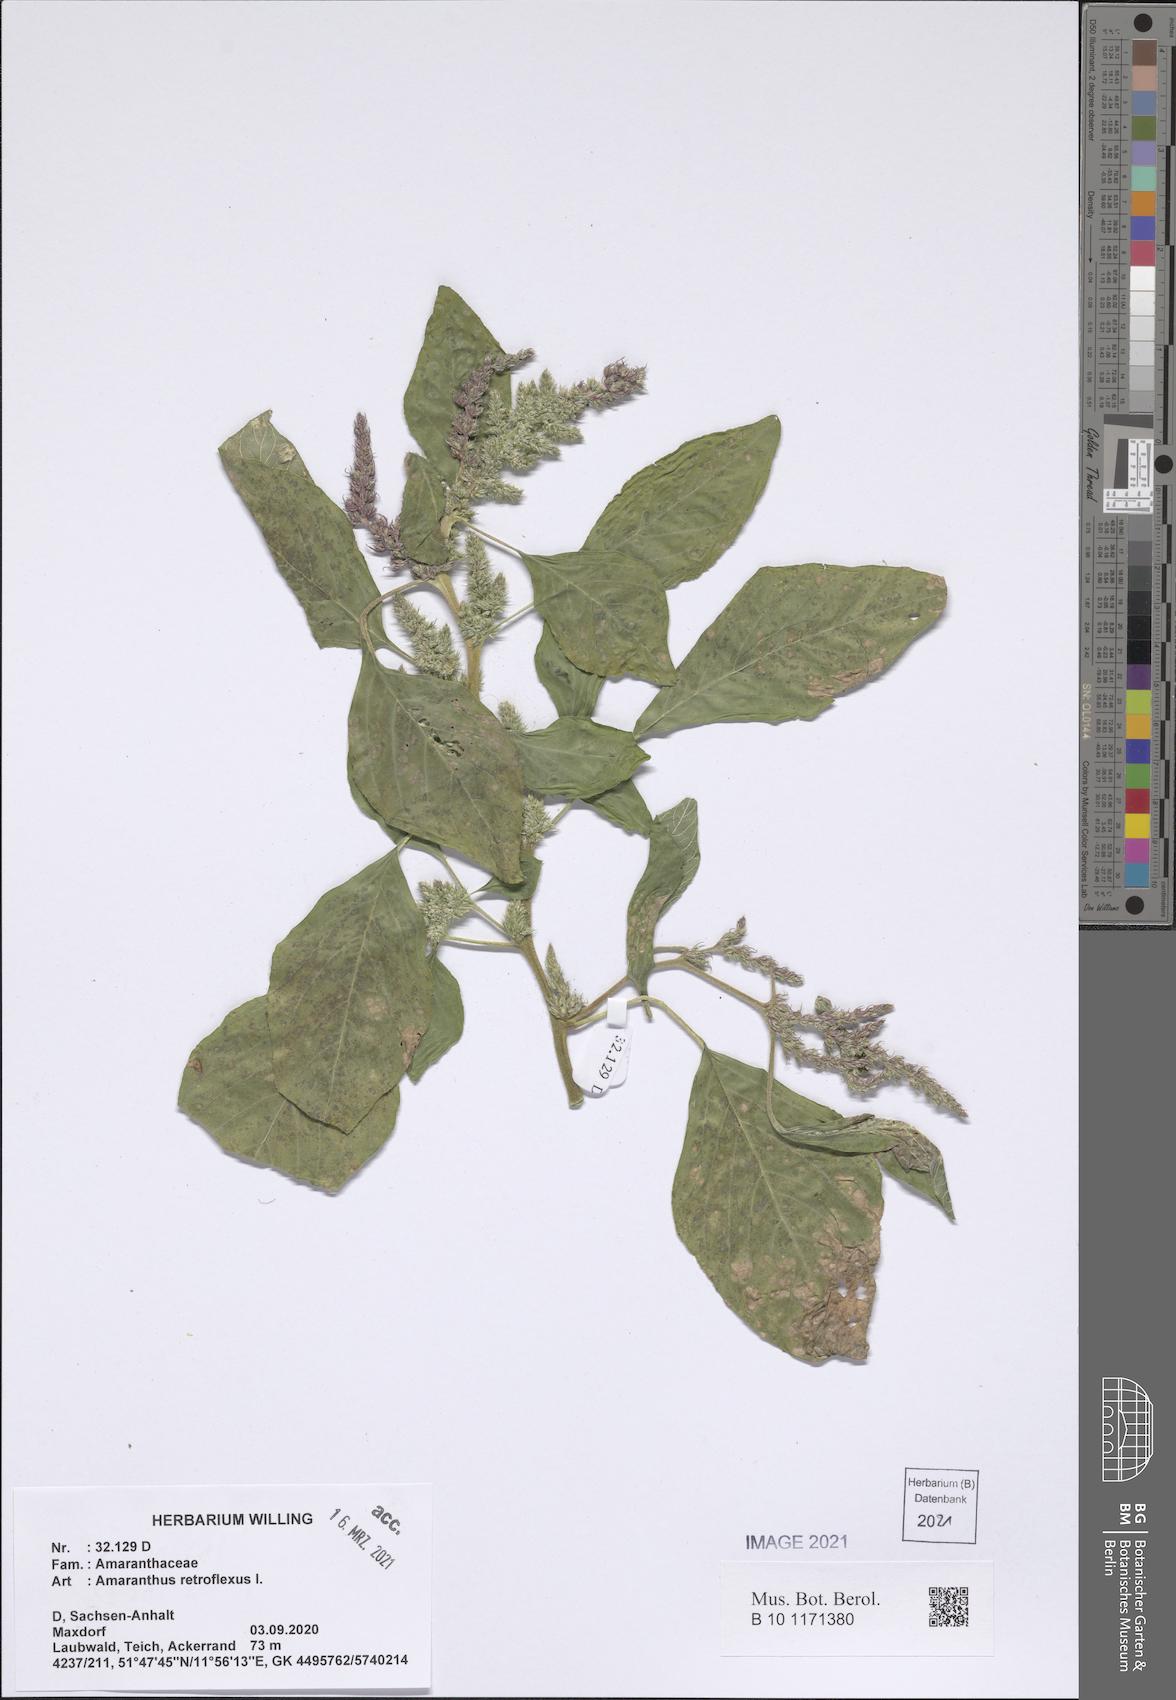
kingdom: Plantae
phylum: Tracheophyta
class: Magnoliopsida
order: Caryophyllales
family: Amaranthaceae
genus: Amaranthus
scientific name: Amaranthus retroflexus
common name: Redroot amaranth
